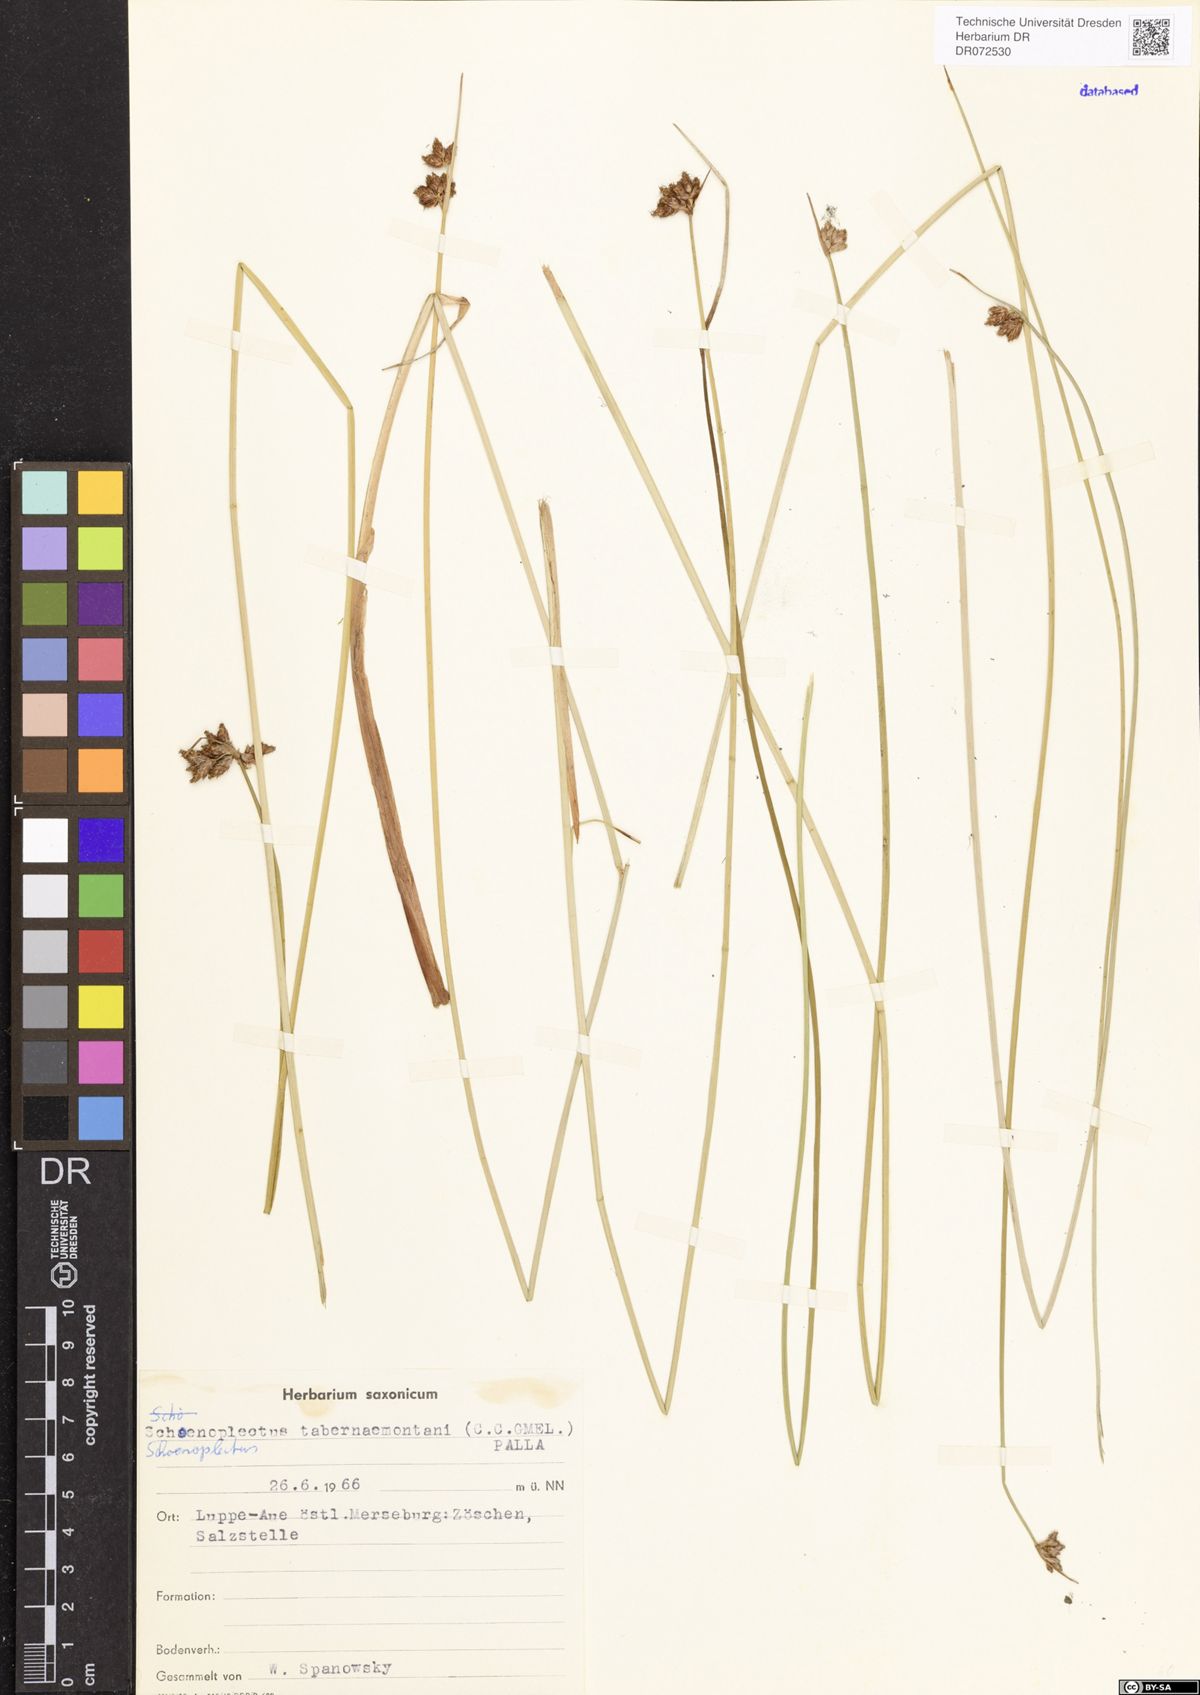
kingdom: Plantae
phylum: Tracheophyta
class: Liliopsida
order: Poales
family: Cyperaceae
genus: Schoenoplectus
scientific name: Schoenoplectus tabernaemontani
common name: Grey club-rush
